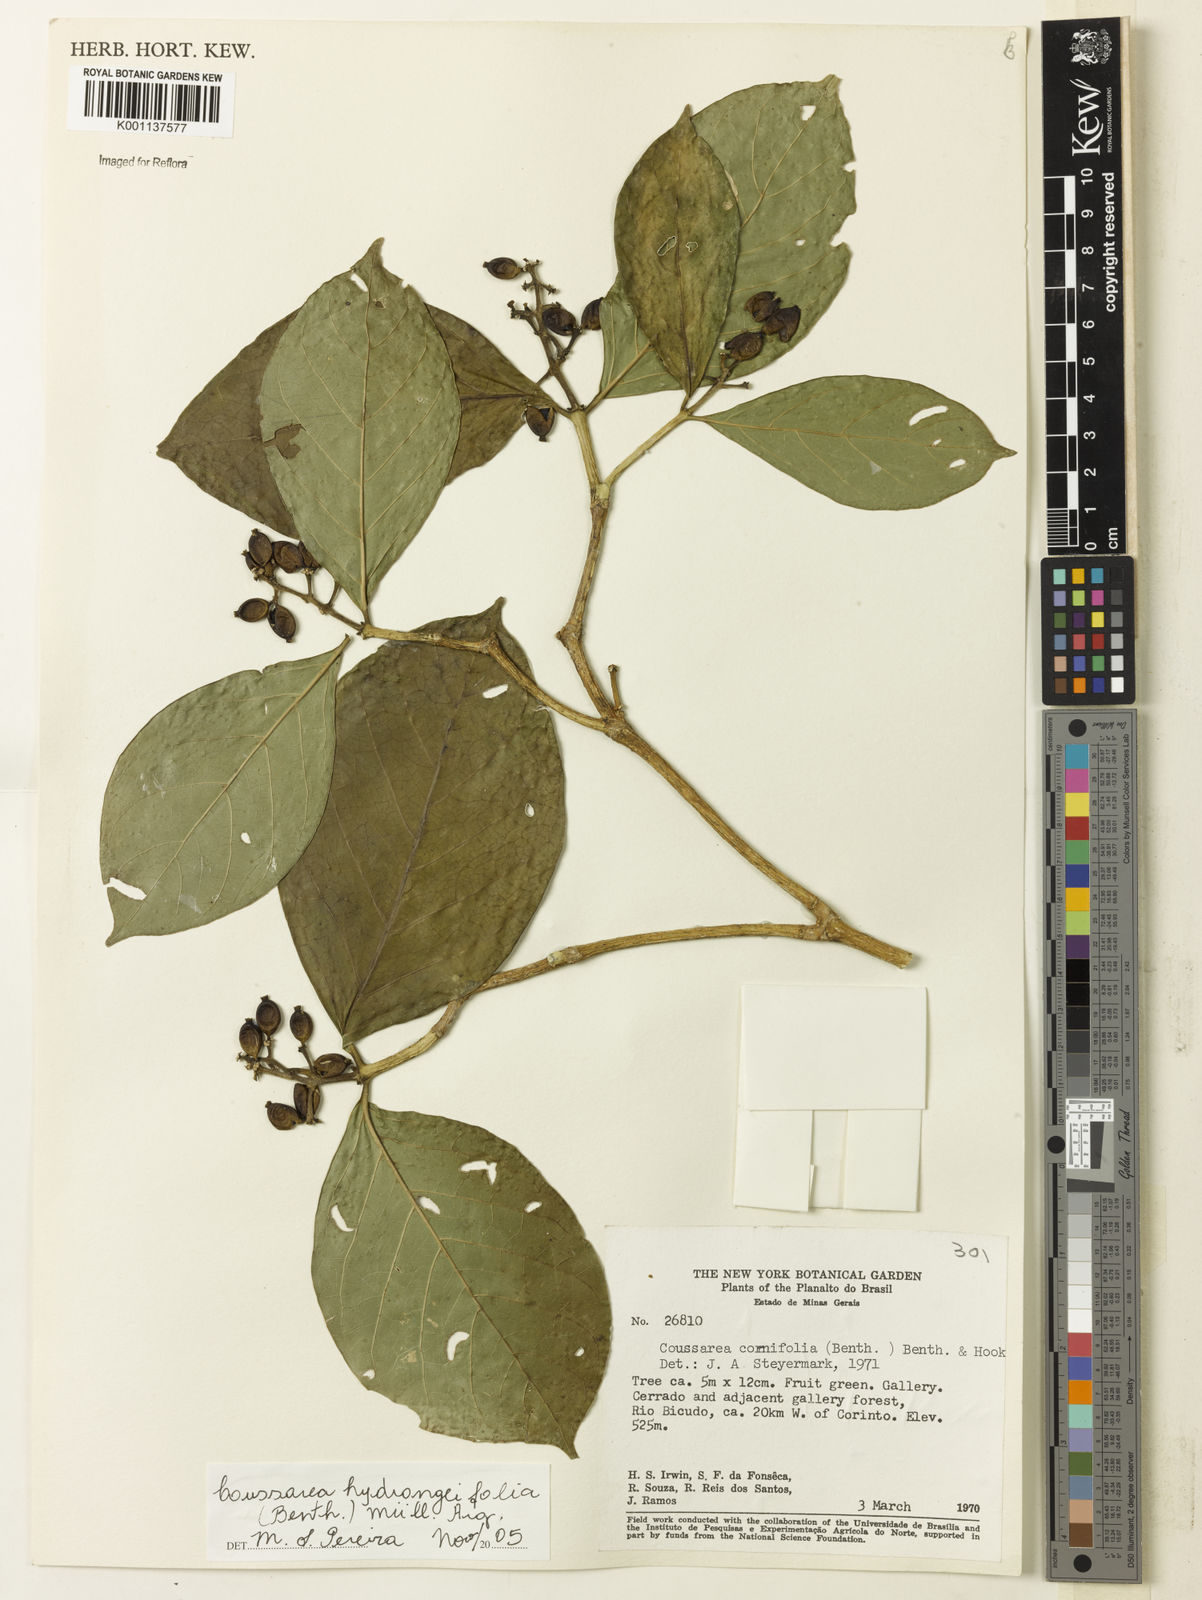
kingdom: Plantae
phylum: Tracheophyta
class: Magnoliopsida
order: Gentianales
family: Rubiaceae
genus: Coussarea
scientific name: Coussarea
